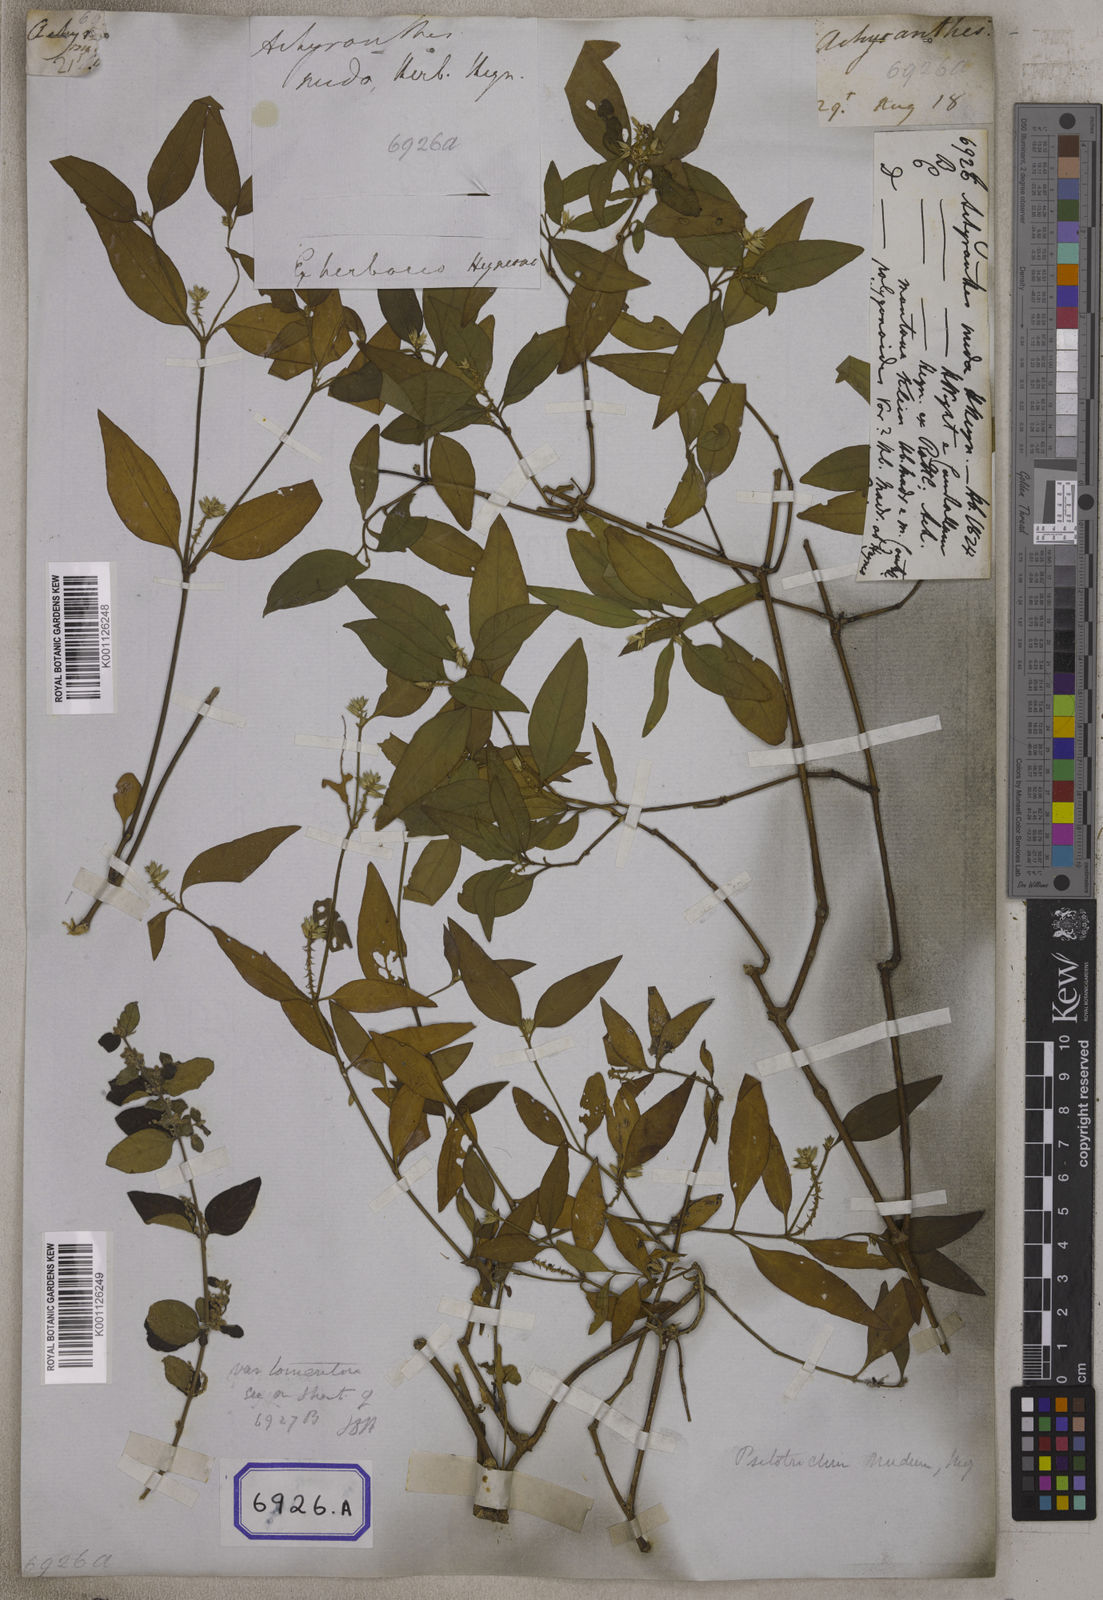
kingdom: Plantae
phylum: Tracheophyta
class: Magnoliopsida
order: Caryophyllales
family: Amaranthaceae
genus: Psilotrichum
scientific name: Psilotrichum nudum
